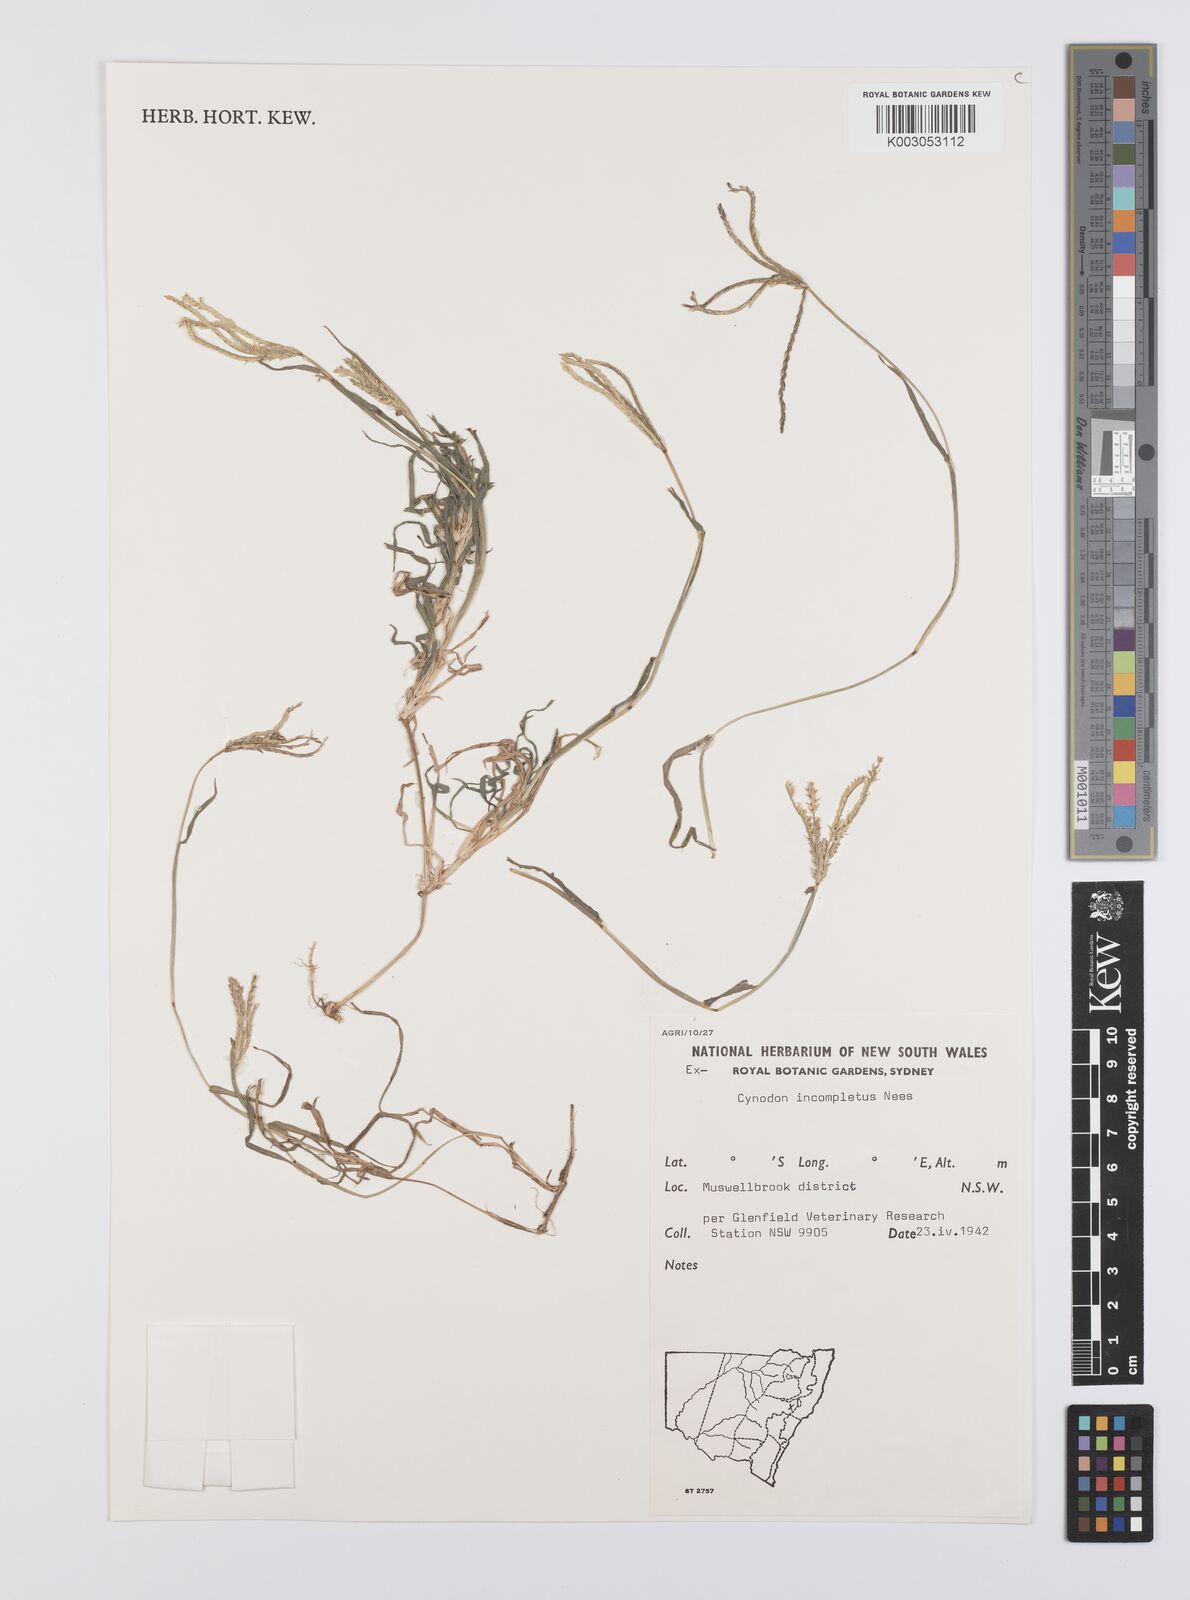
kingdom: Plantae
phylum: Tracheophyta
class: Liliopsida
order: Poales
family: Poaceae
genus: Cynodon
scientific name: Cynodon incompletus
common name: African bermuda-grass
